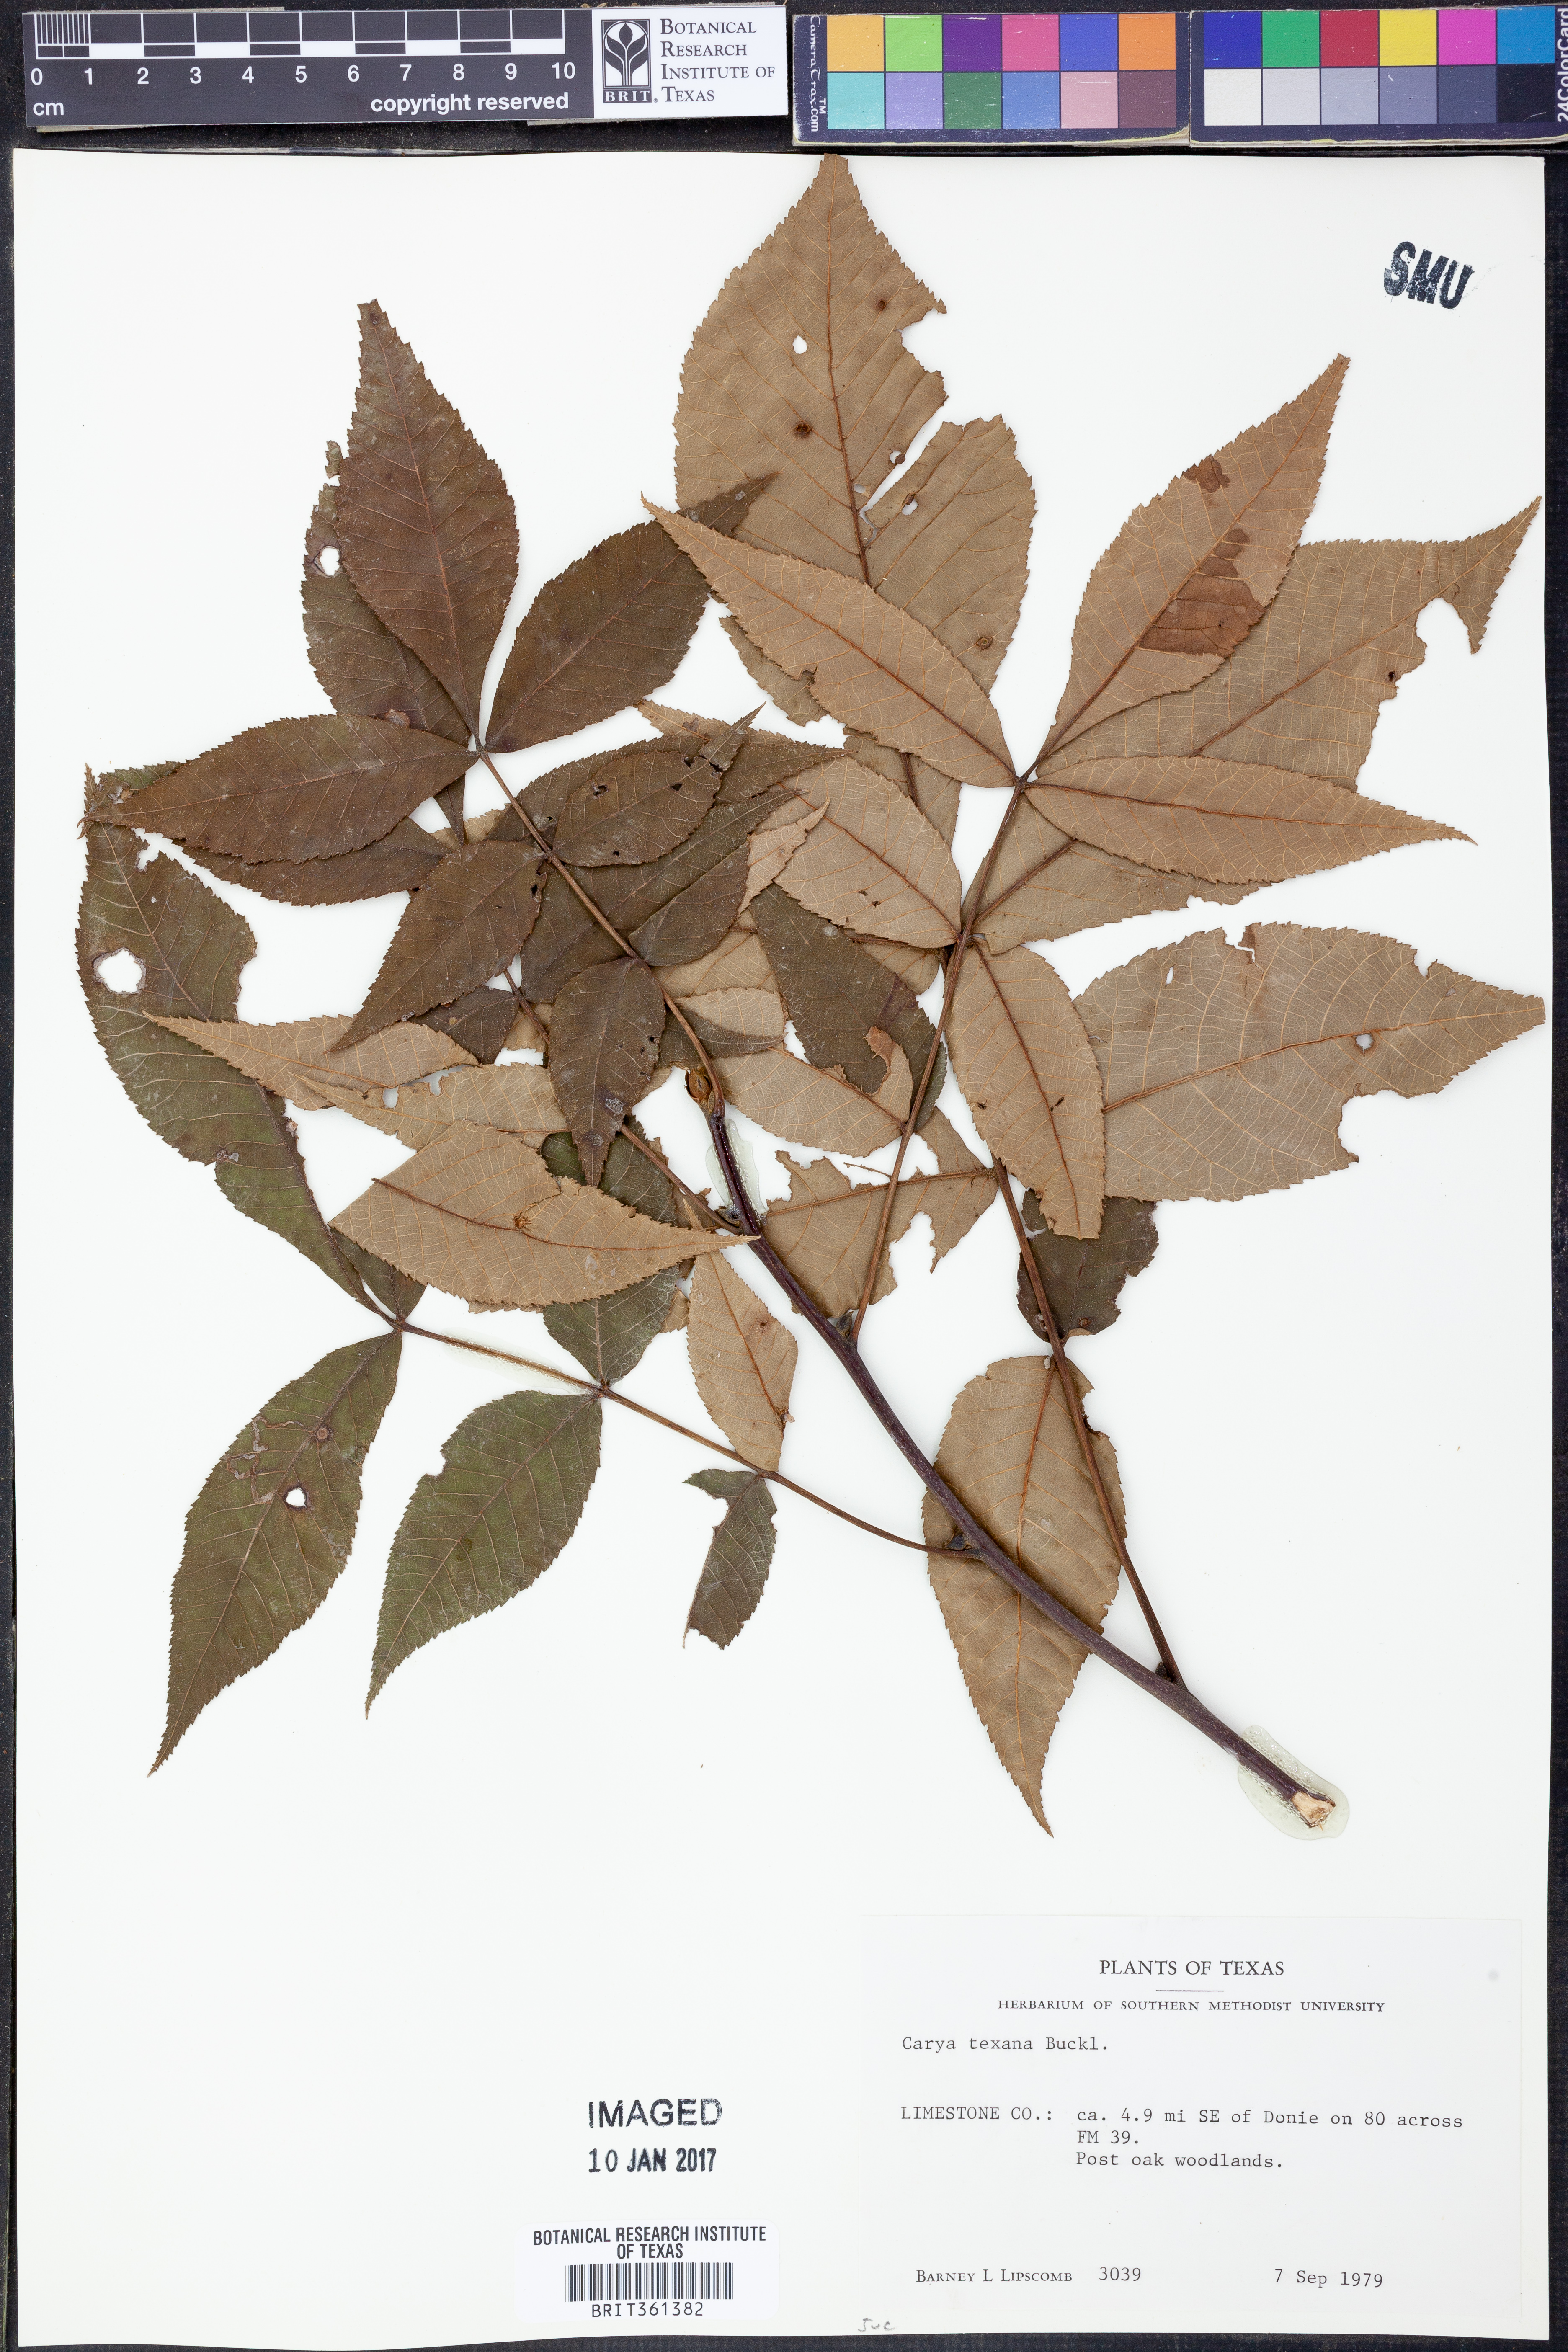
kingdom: Plantae
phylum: Tracheophyta
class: Magnoliopsida
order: Fagales
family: Juglandaceae
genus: Carya
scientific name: Carya texana
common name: Black hickory
